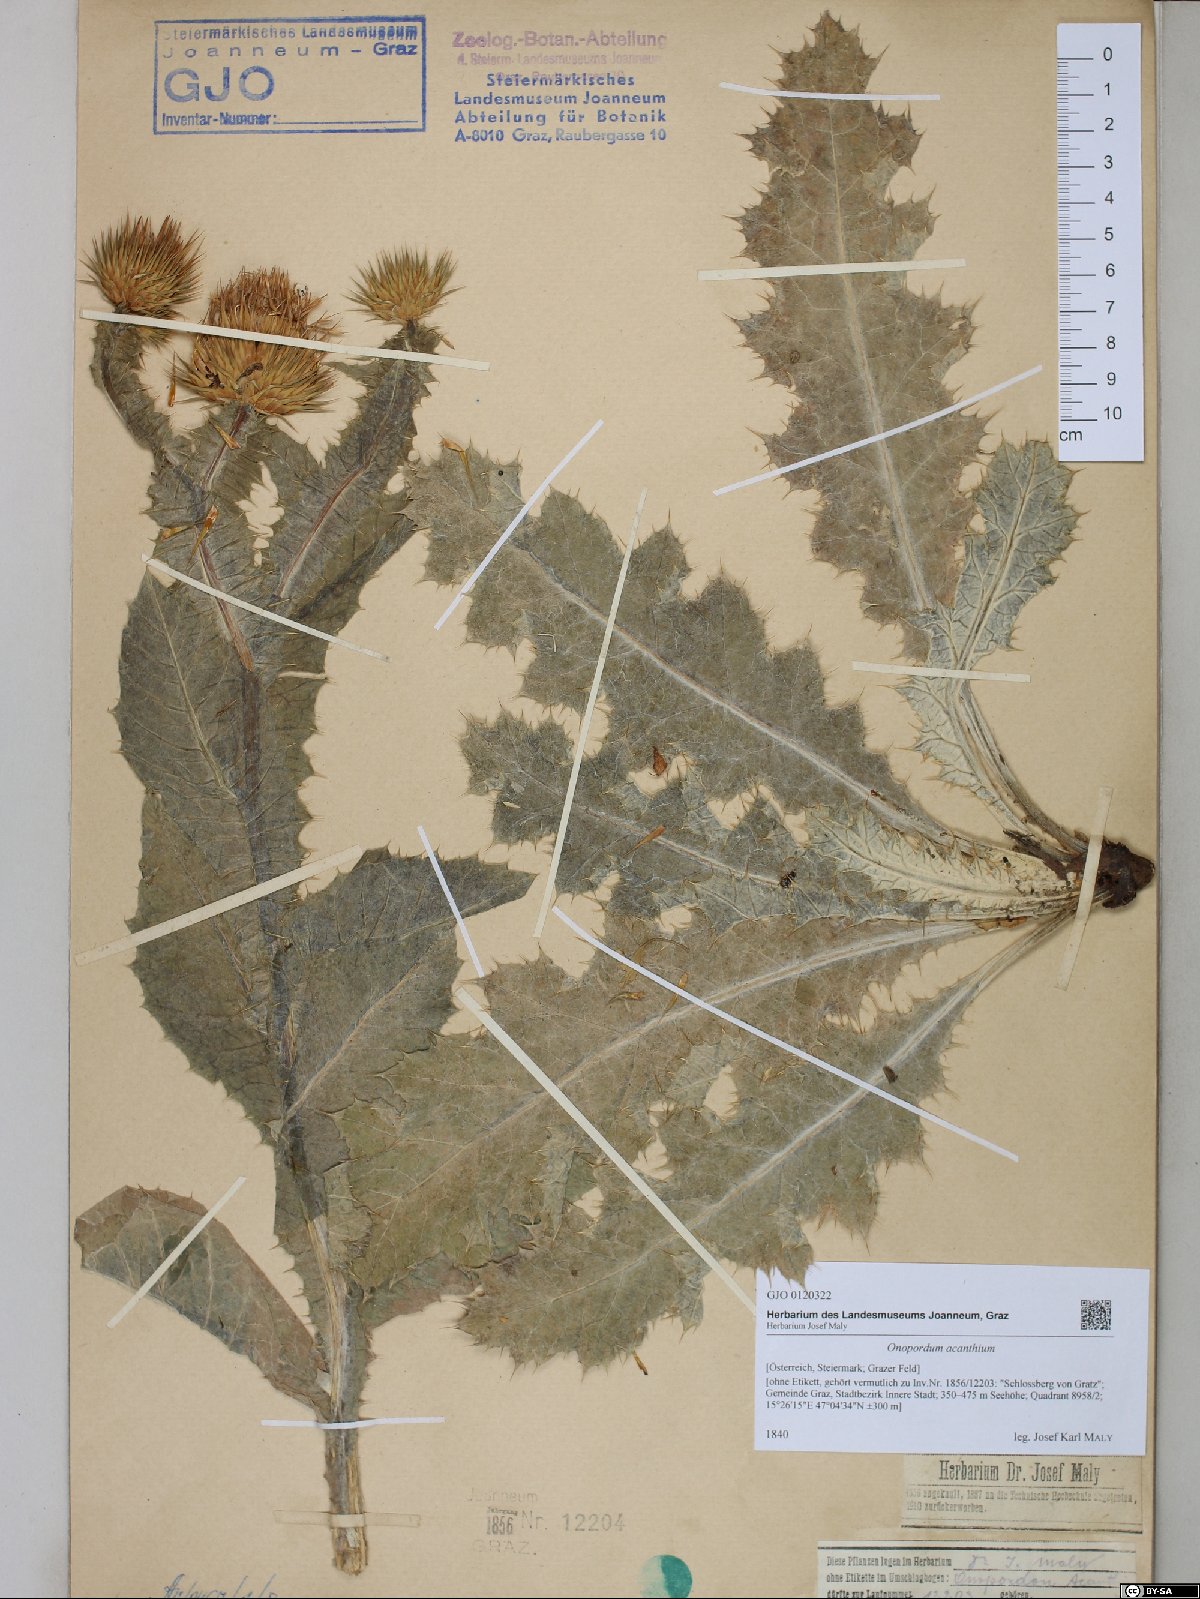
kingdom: Plantae
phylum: Tracheophyta
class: Magnoliopsida
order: Asterales
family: Asteraceae
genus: Onopordum
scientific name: Onopordum acanthium
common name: Scotch thistle
